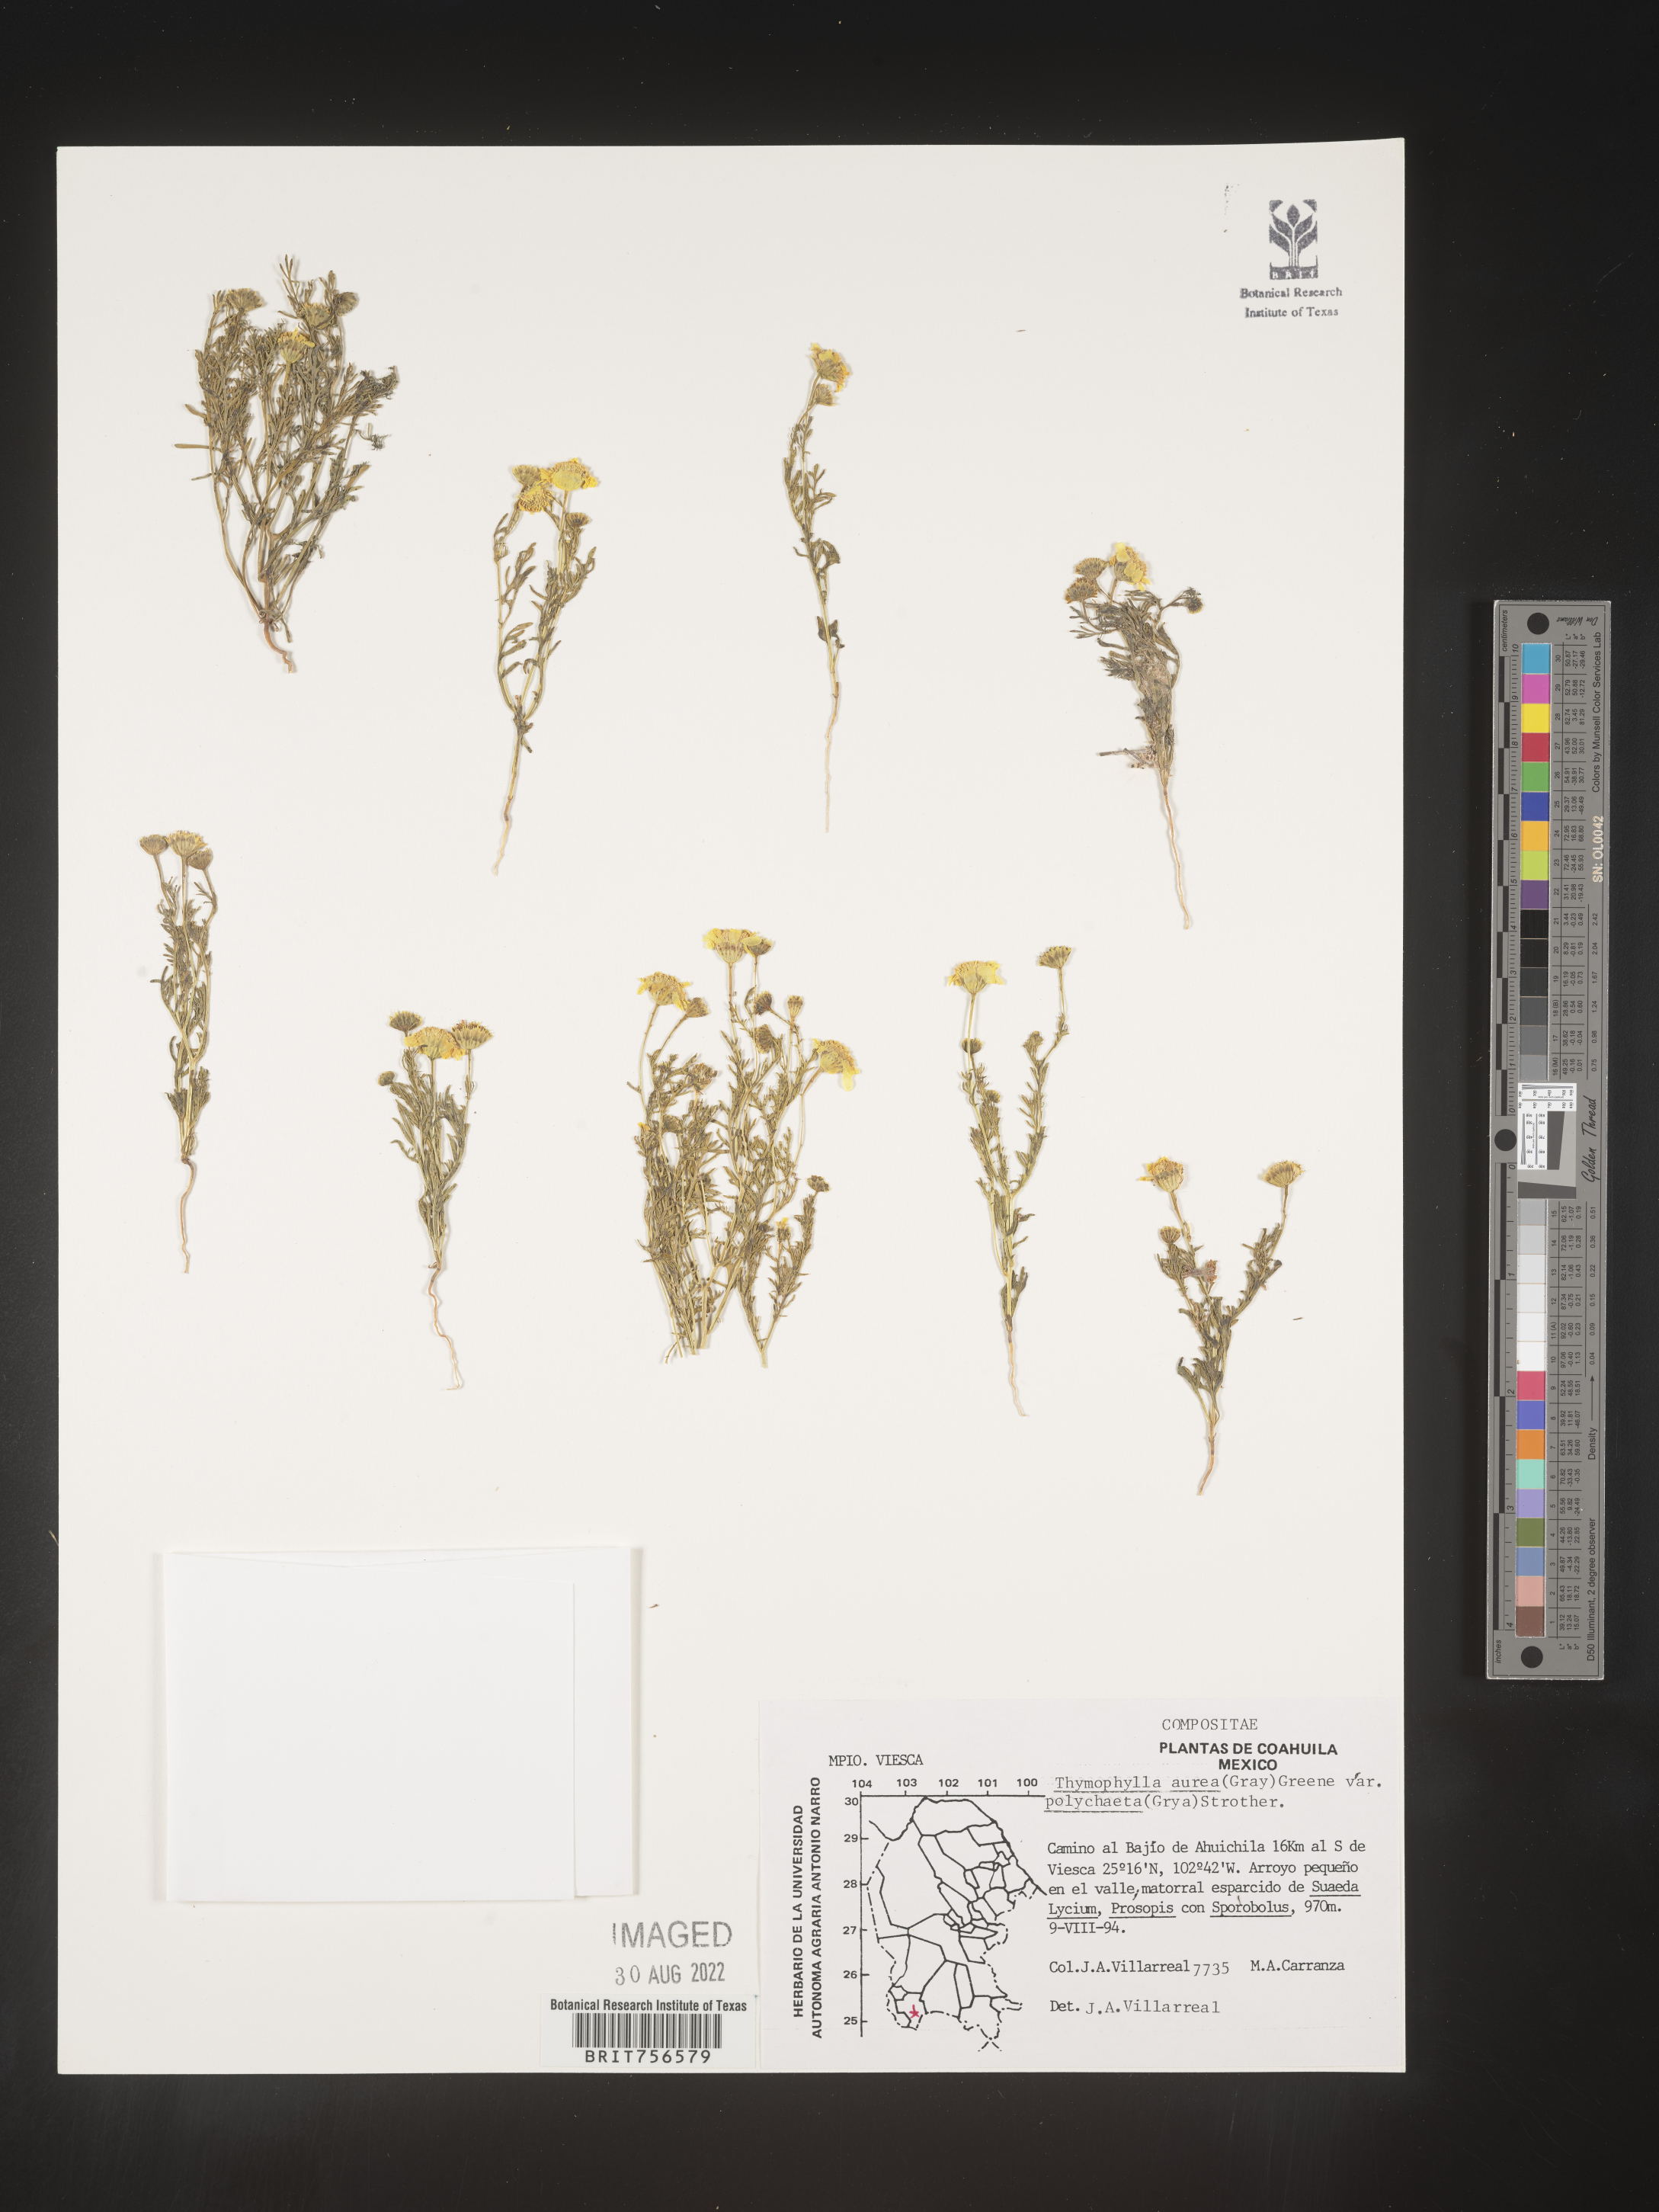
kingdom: Plantae
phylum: Tracheophyta
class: Magnoliopsida
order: Asterales
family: Asteraceae
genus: Thymophylla
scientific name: Thymophylla aurea
